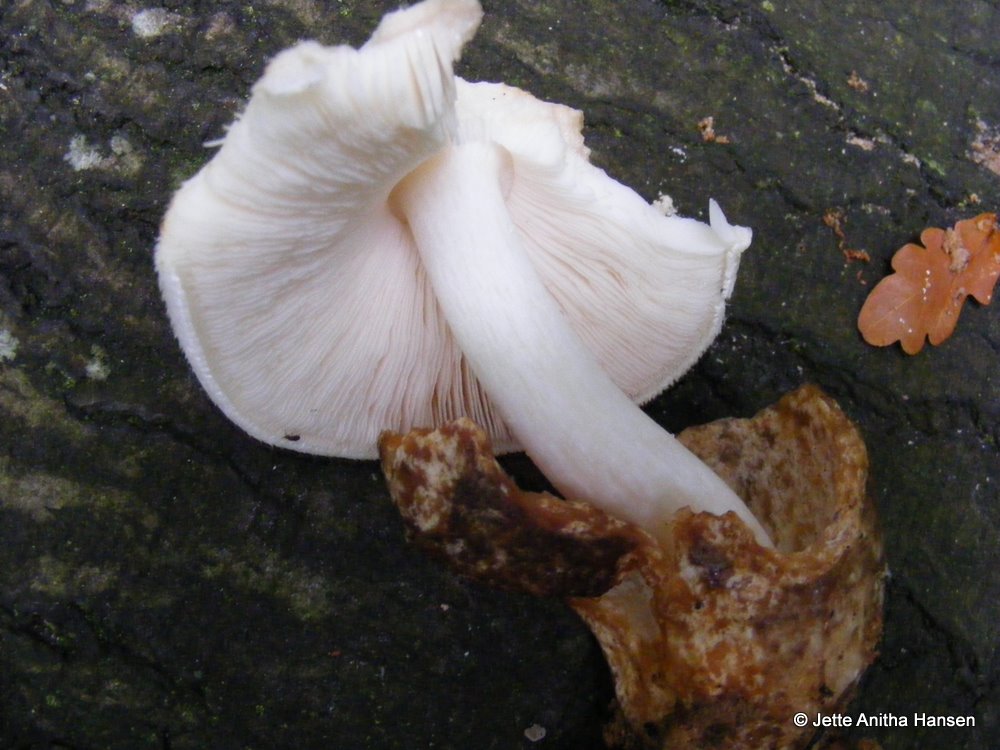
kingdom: Fungi
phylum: Basidiomycota
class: Agaricomycetes
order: Agaricales
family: Pluteaceae
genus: Volvariella
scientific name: Volvariella bombycina
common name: silkehåret posesvamp
